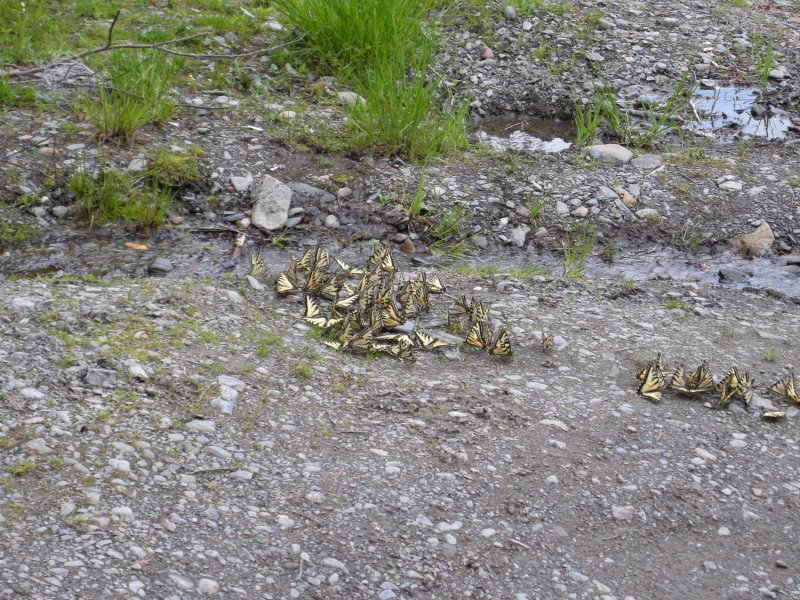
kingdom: Animalia
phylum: Arthropoda
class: Insecta
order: Lepidoptera
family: Papilionidae
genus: Pterourus
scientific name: Pterourus canadensis
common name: Canadian Tiger Swallowtail
